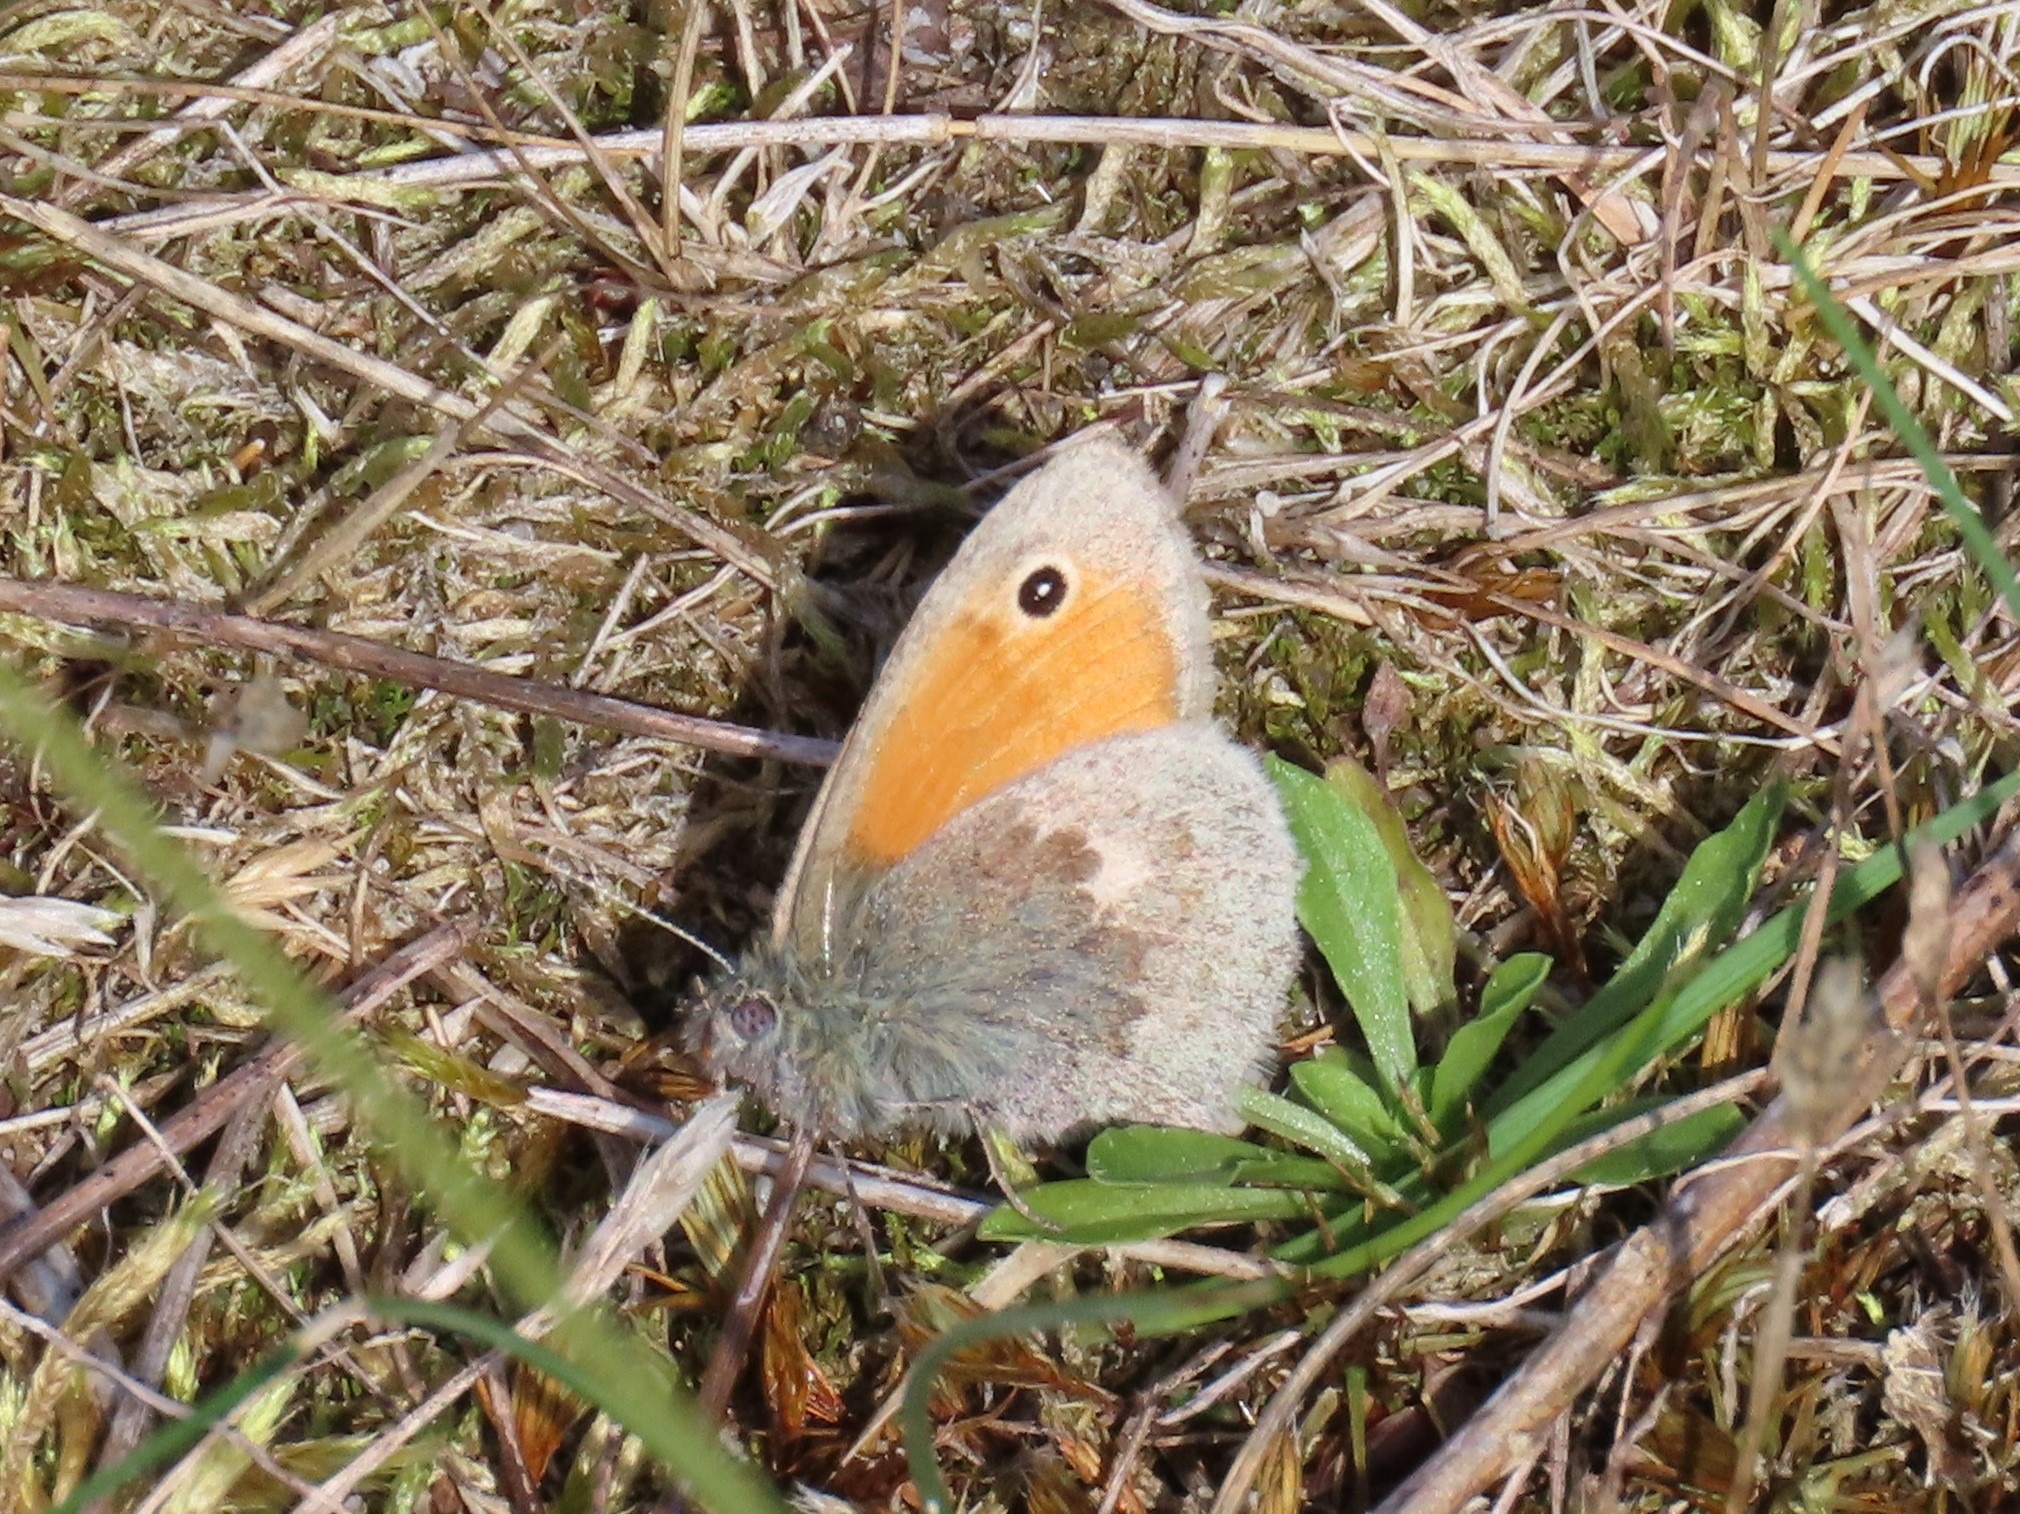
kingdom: Animalia
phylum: Arthropoda
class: Insecta
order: Lepidoptera
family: Nymphalidae
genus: Coenonympha
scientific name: Coenonympha pamphilus
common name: Okkergul randøje
